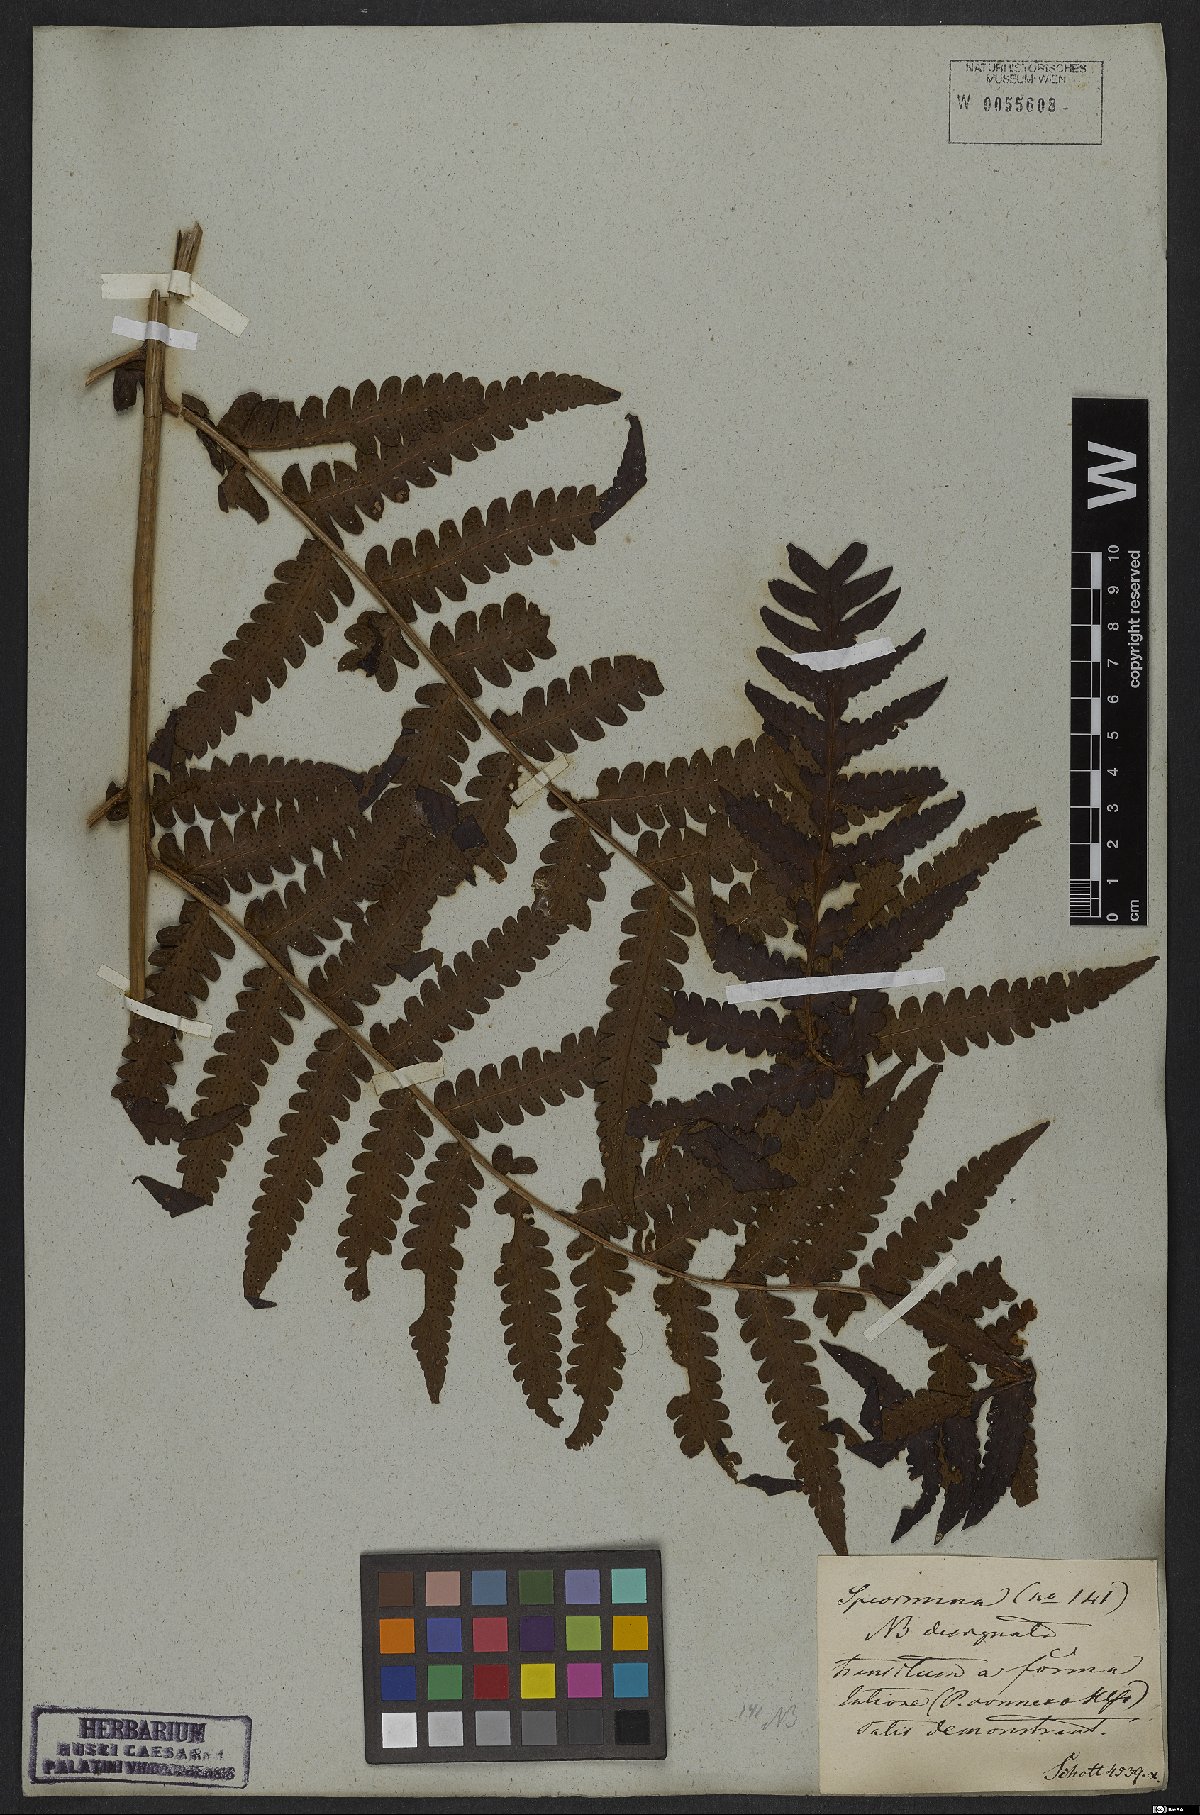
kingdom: Plantae
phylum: Tracheophyta
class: Polypodiopsida
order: Polypodiales
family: Dryopteridaceae
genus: Megalastrum
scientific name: Megalastrum connexum
